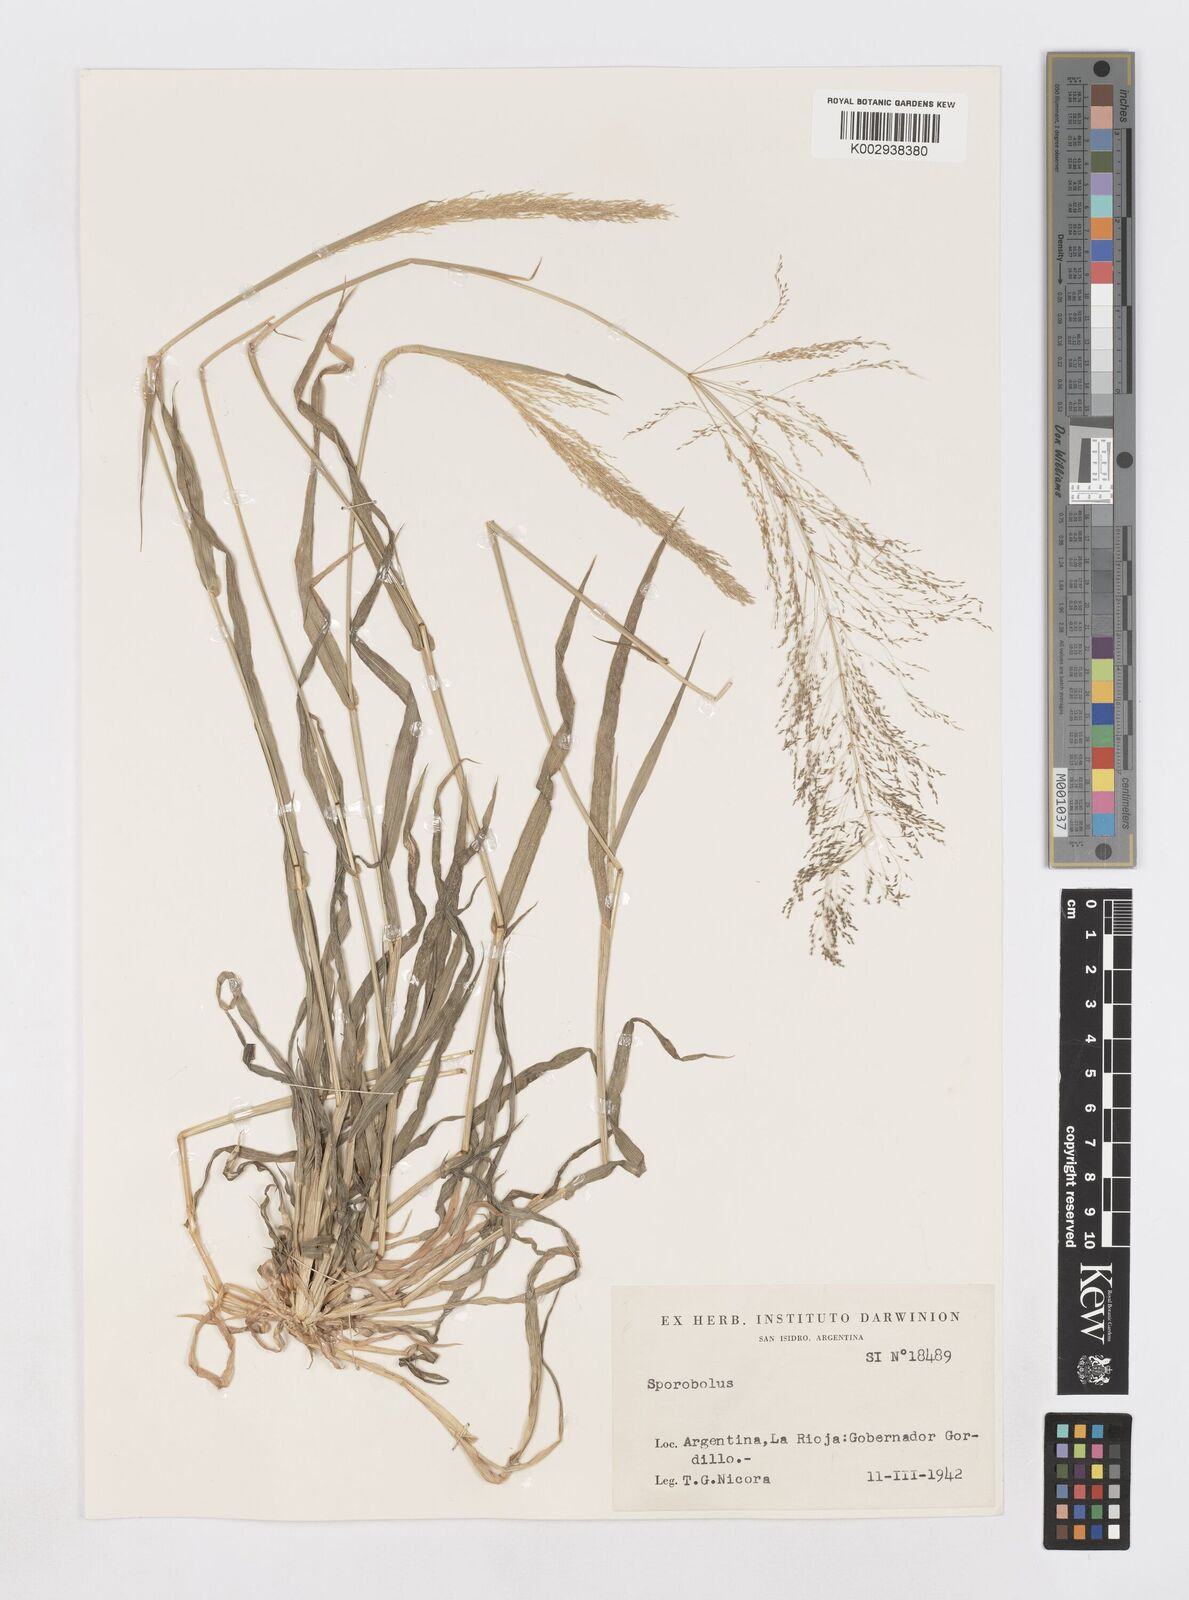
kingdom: Plantae
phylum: Tracheophyta
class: Liliopsida
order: Poales
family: Poaceae
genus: Sporobolus
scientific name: Sporobolus pyramidatus
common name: Whorled dropseed
